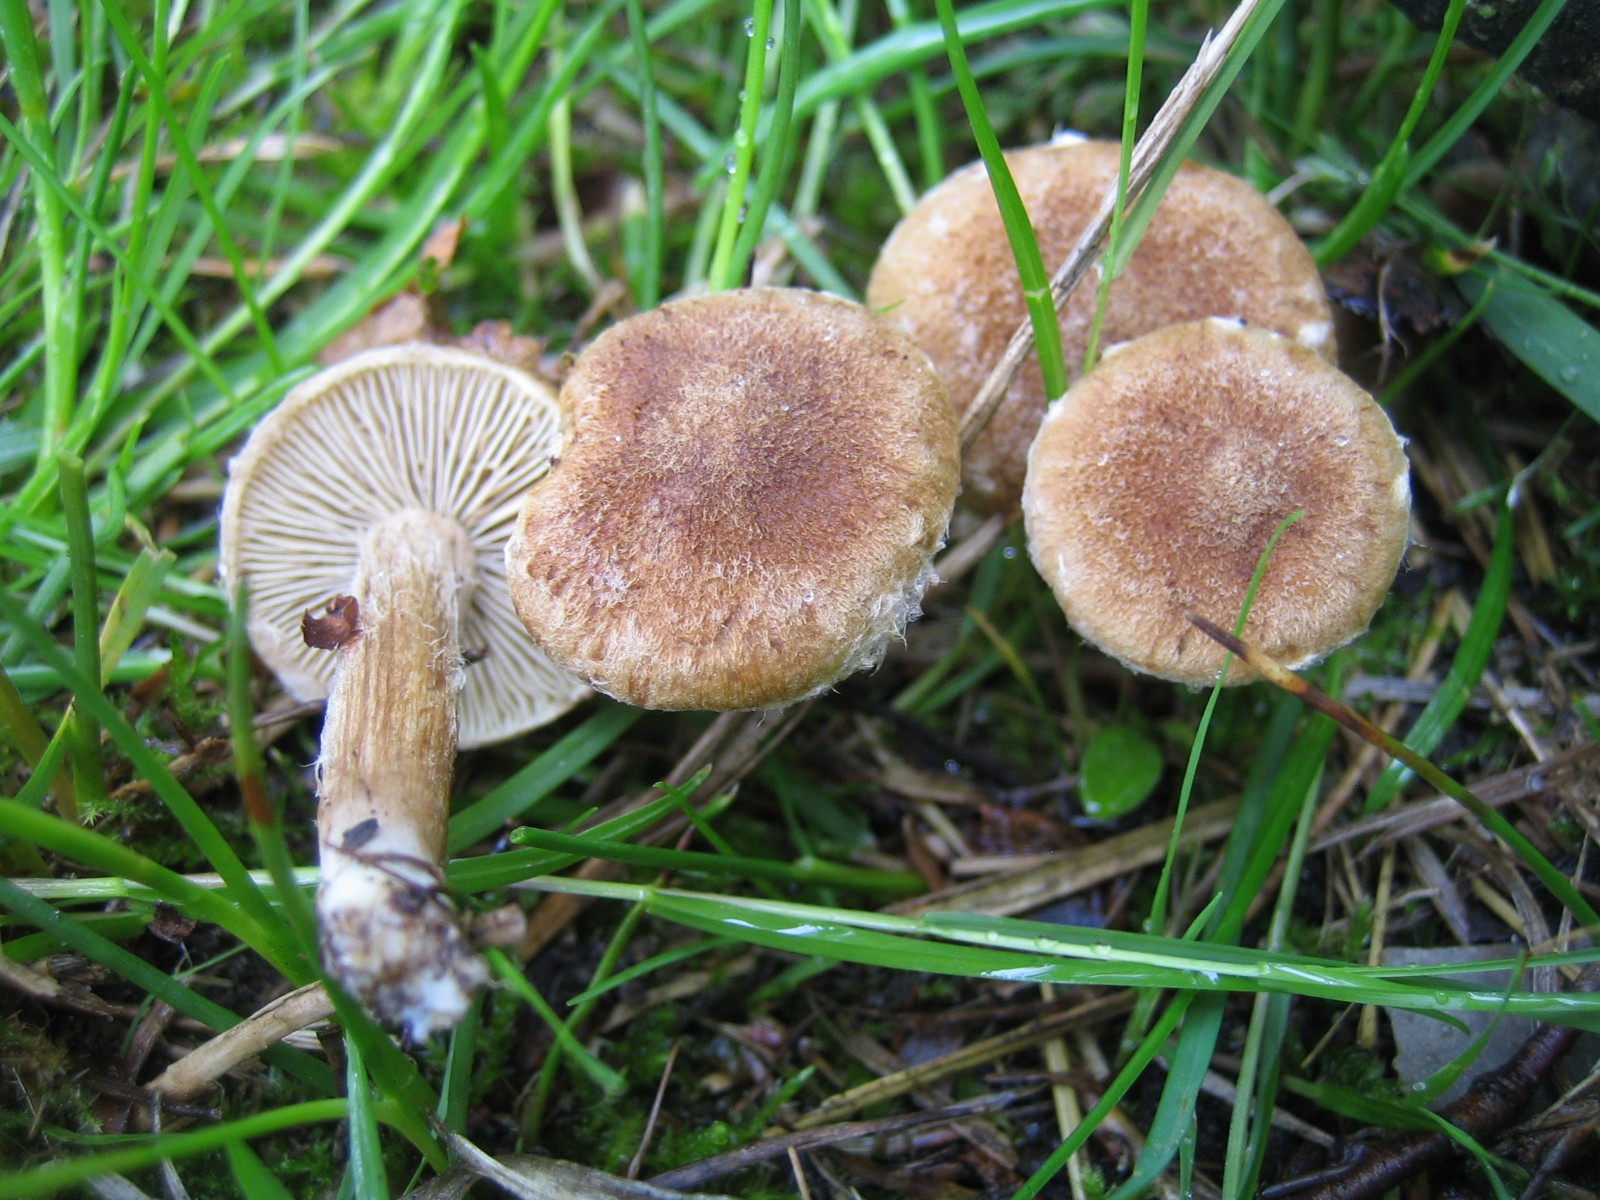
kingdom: Fungi
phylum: Basidiomycota
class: Agaricomycetes
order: Agaricales
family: Inocybaceae
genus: Inocybe
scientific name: Inocybe dulcamara
